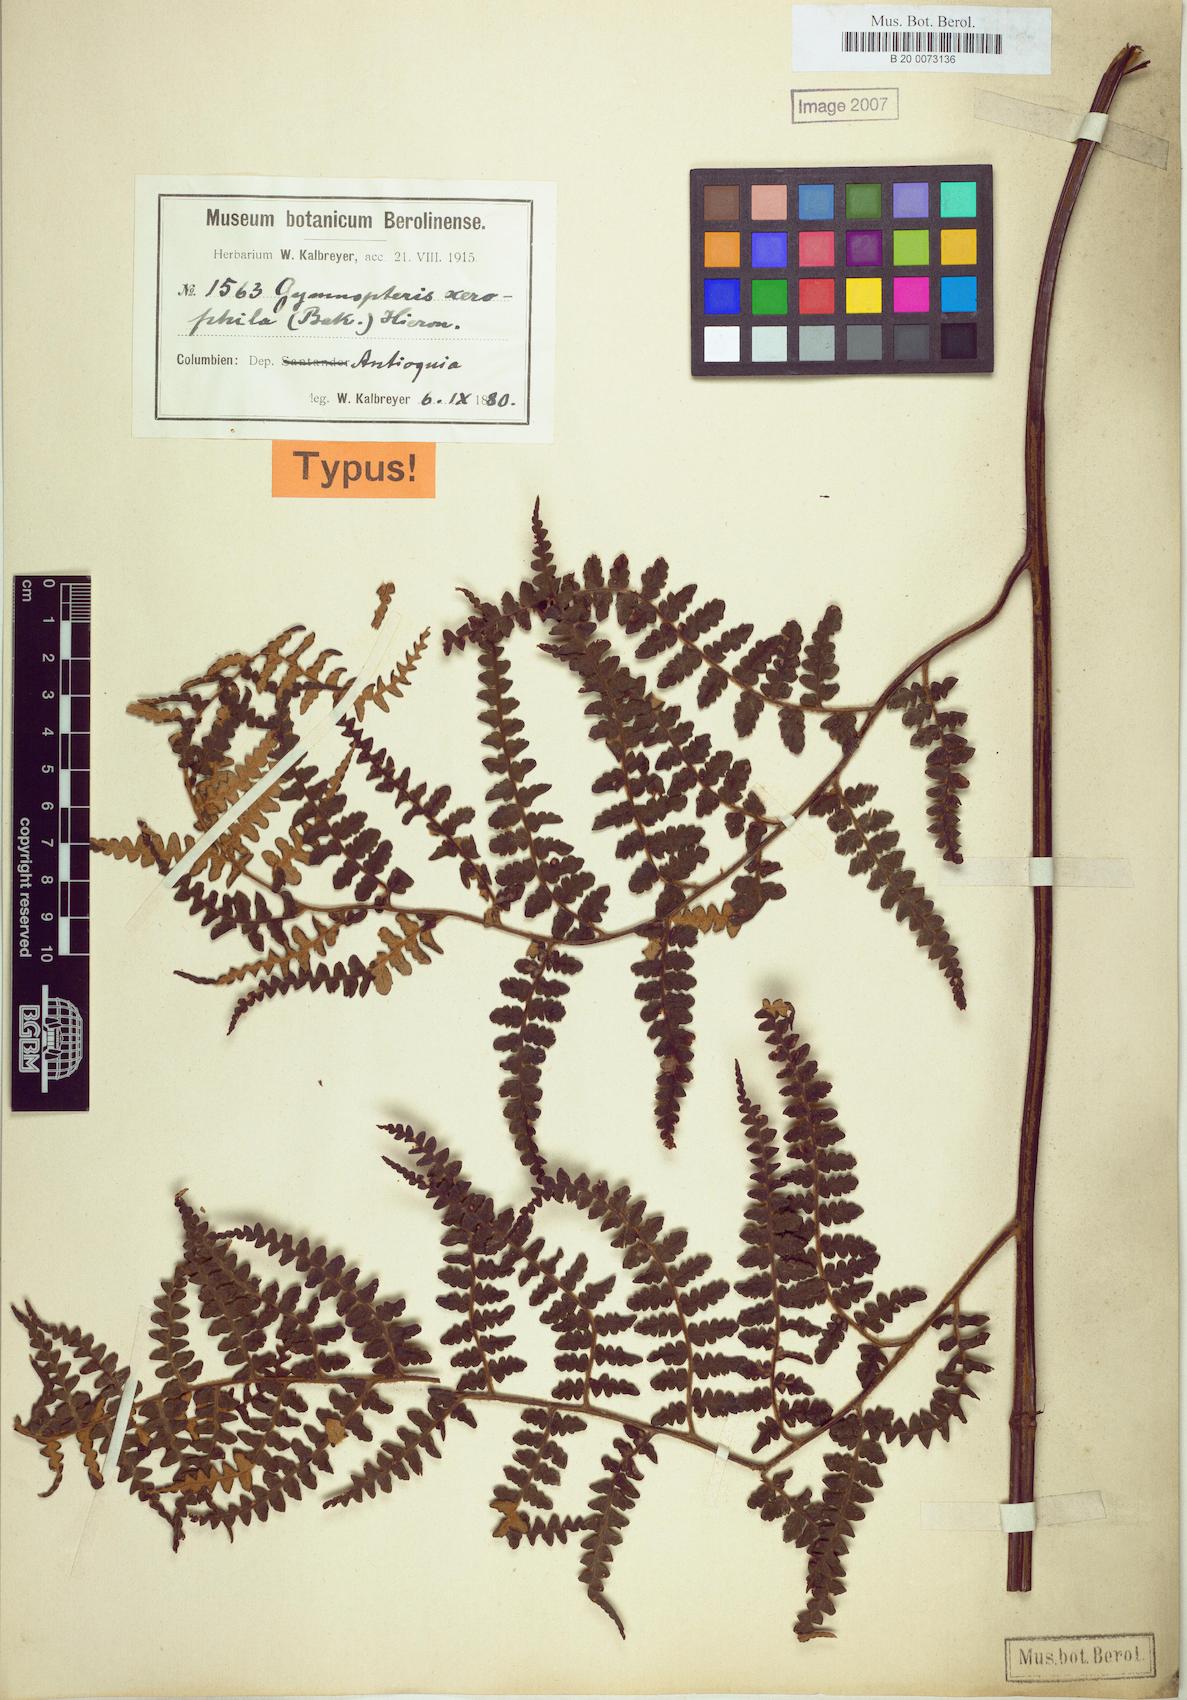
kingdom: Plantae
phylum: Tracheophyta
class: Polypodiopsida
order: Polypodiales
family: Pteridaceae
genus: Pityrogramma
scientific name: Pityrogramma jamesonii
